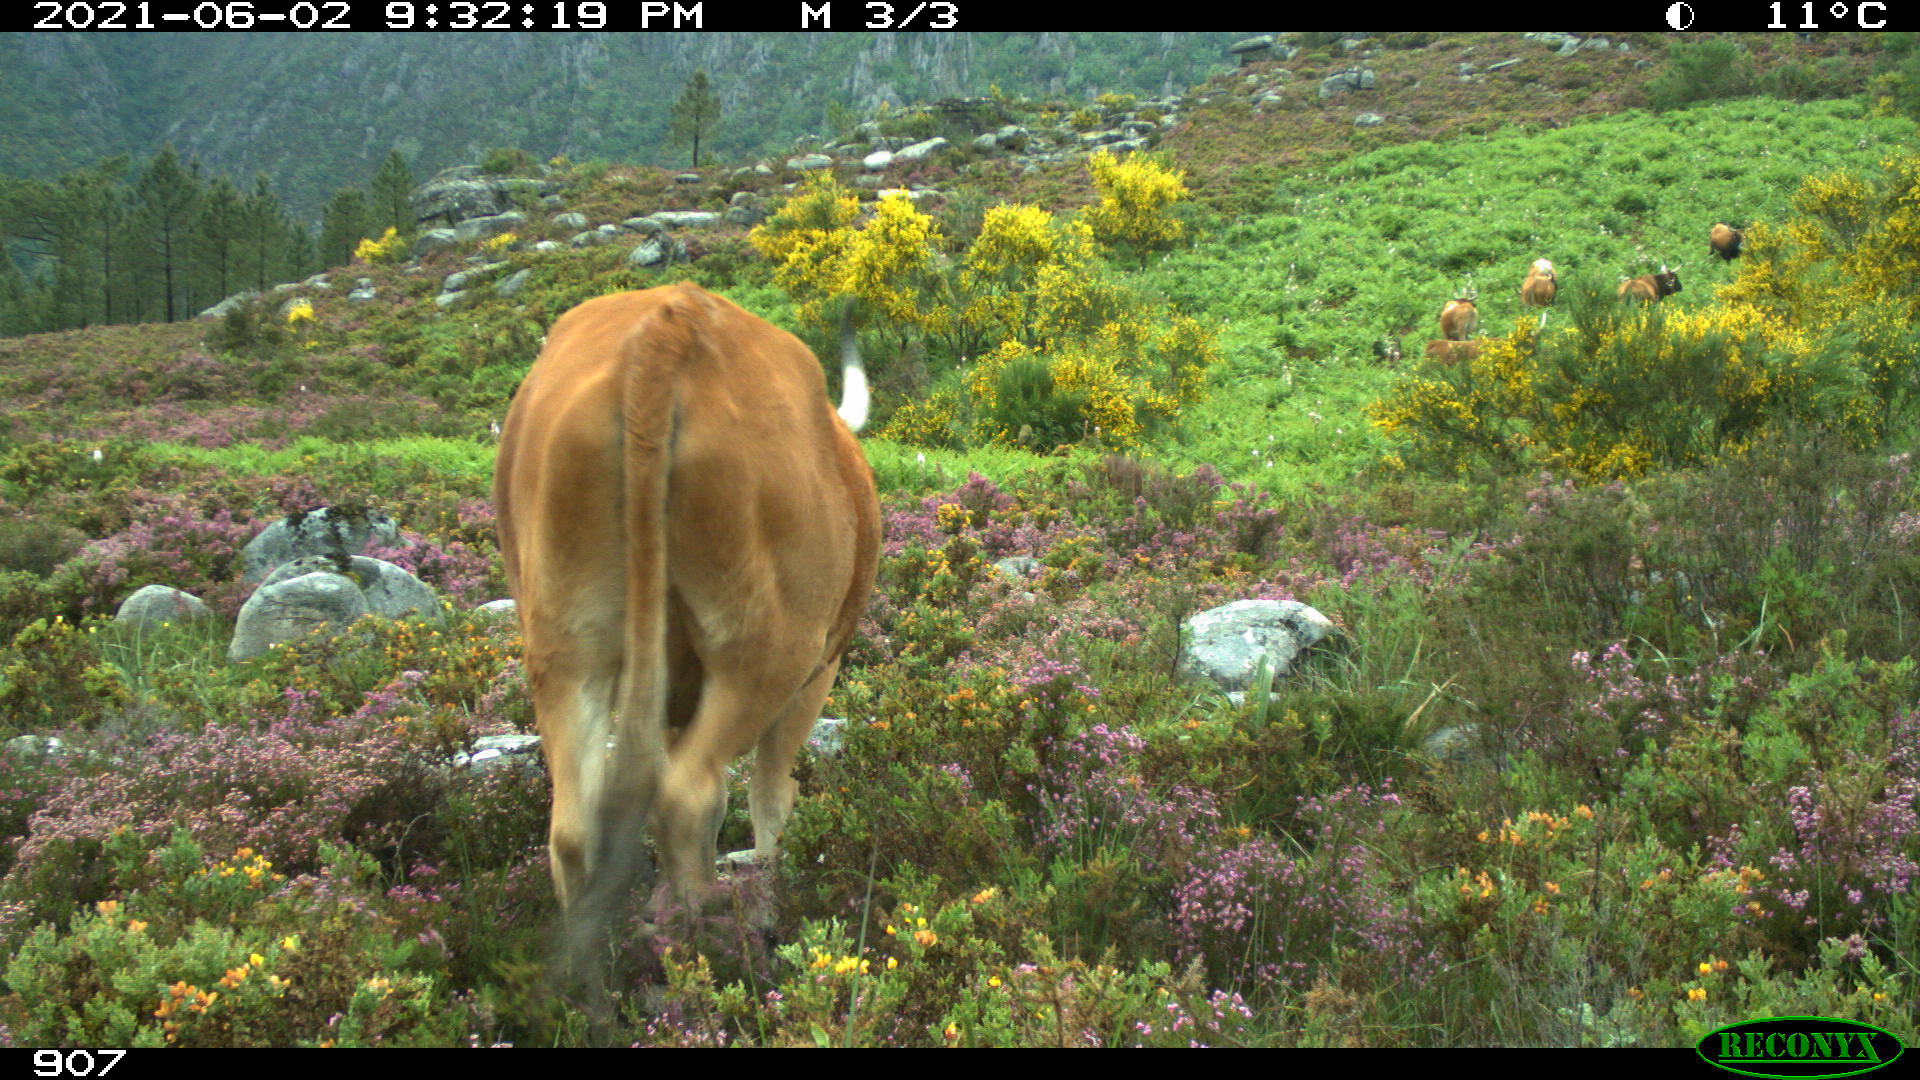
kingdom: Animalia
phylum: Chordata
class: Mammalia
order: Artiodactyla
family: Bovidae
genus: Bos
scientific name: Bos taurus
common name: Domesticated cattle
